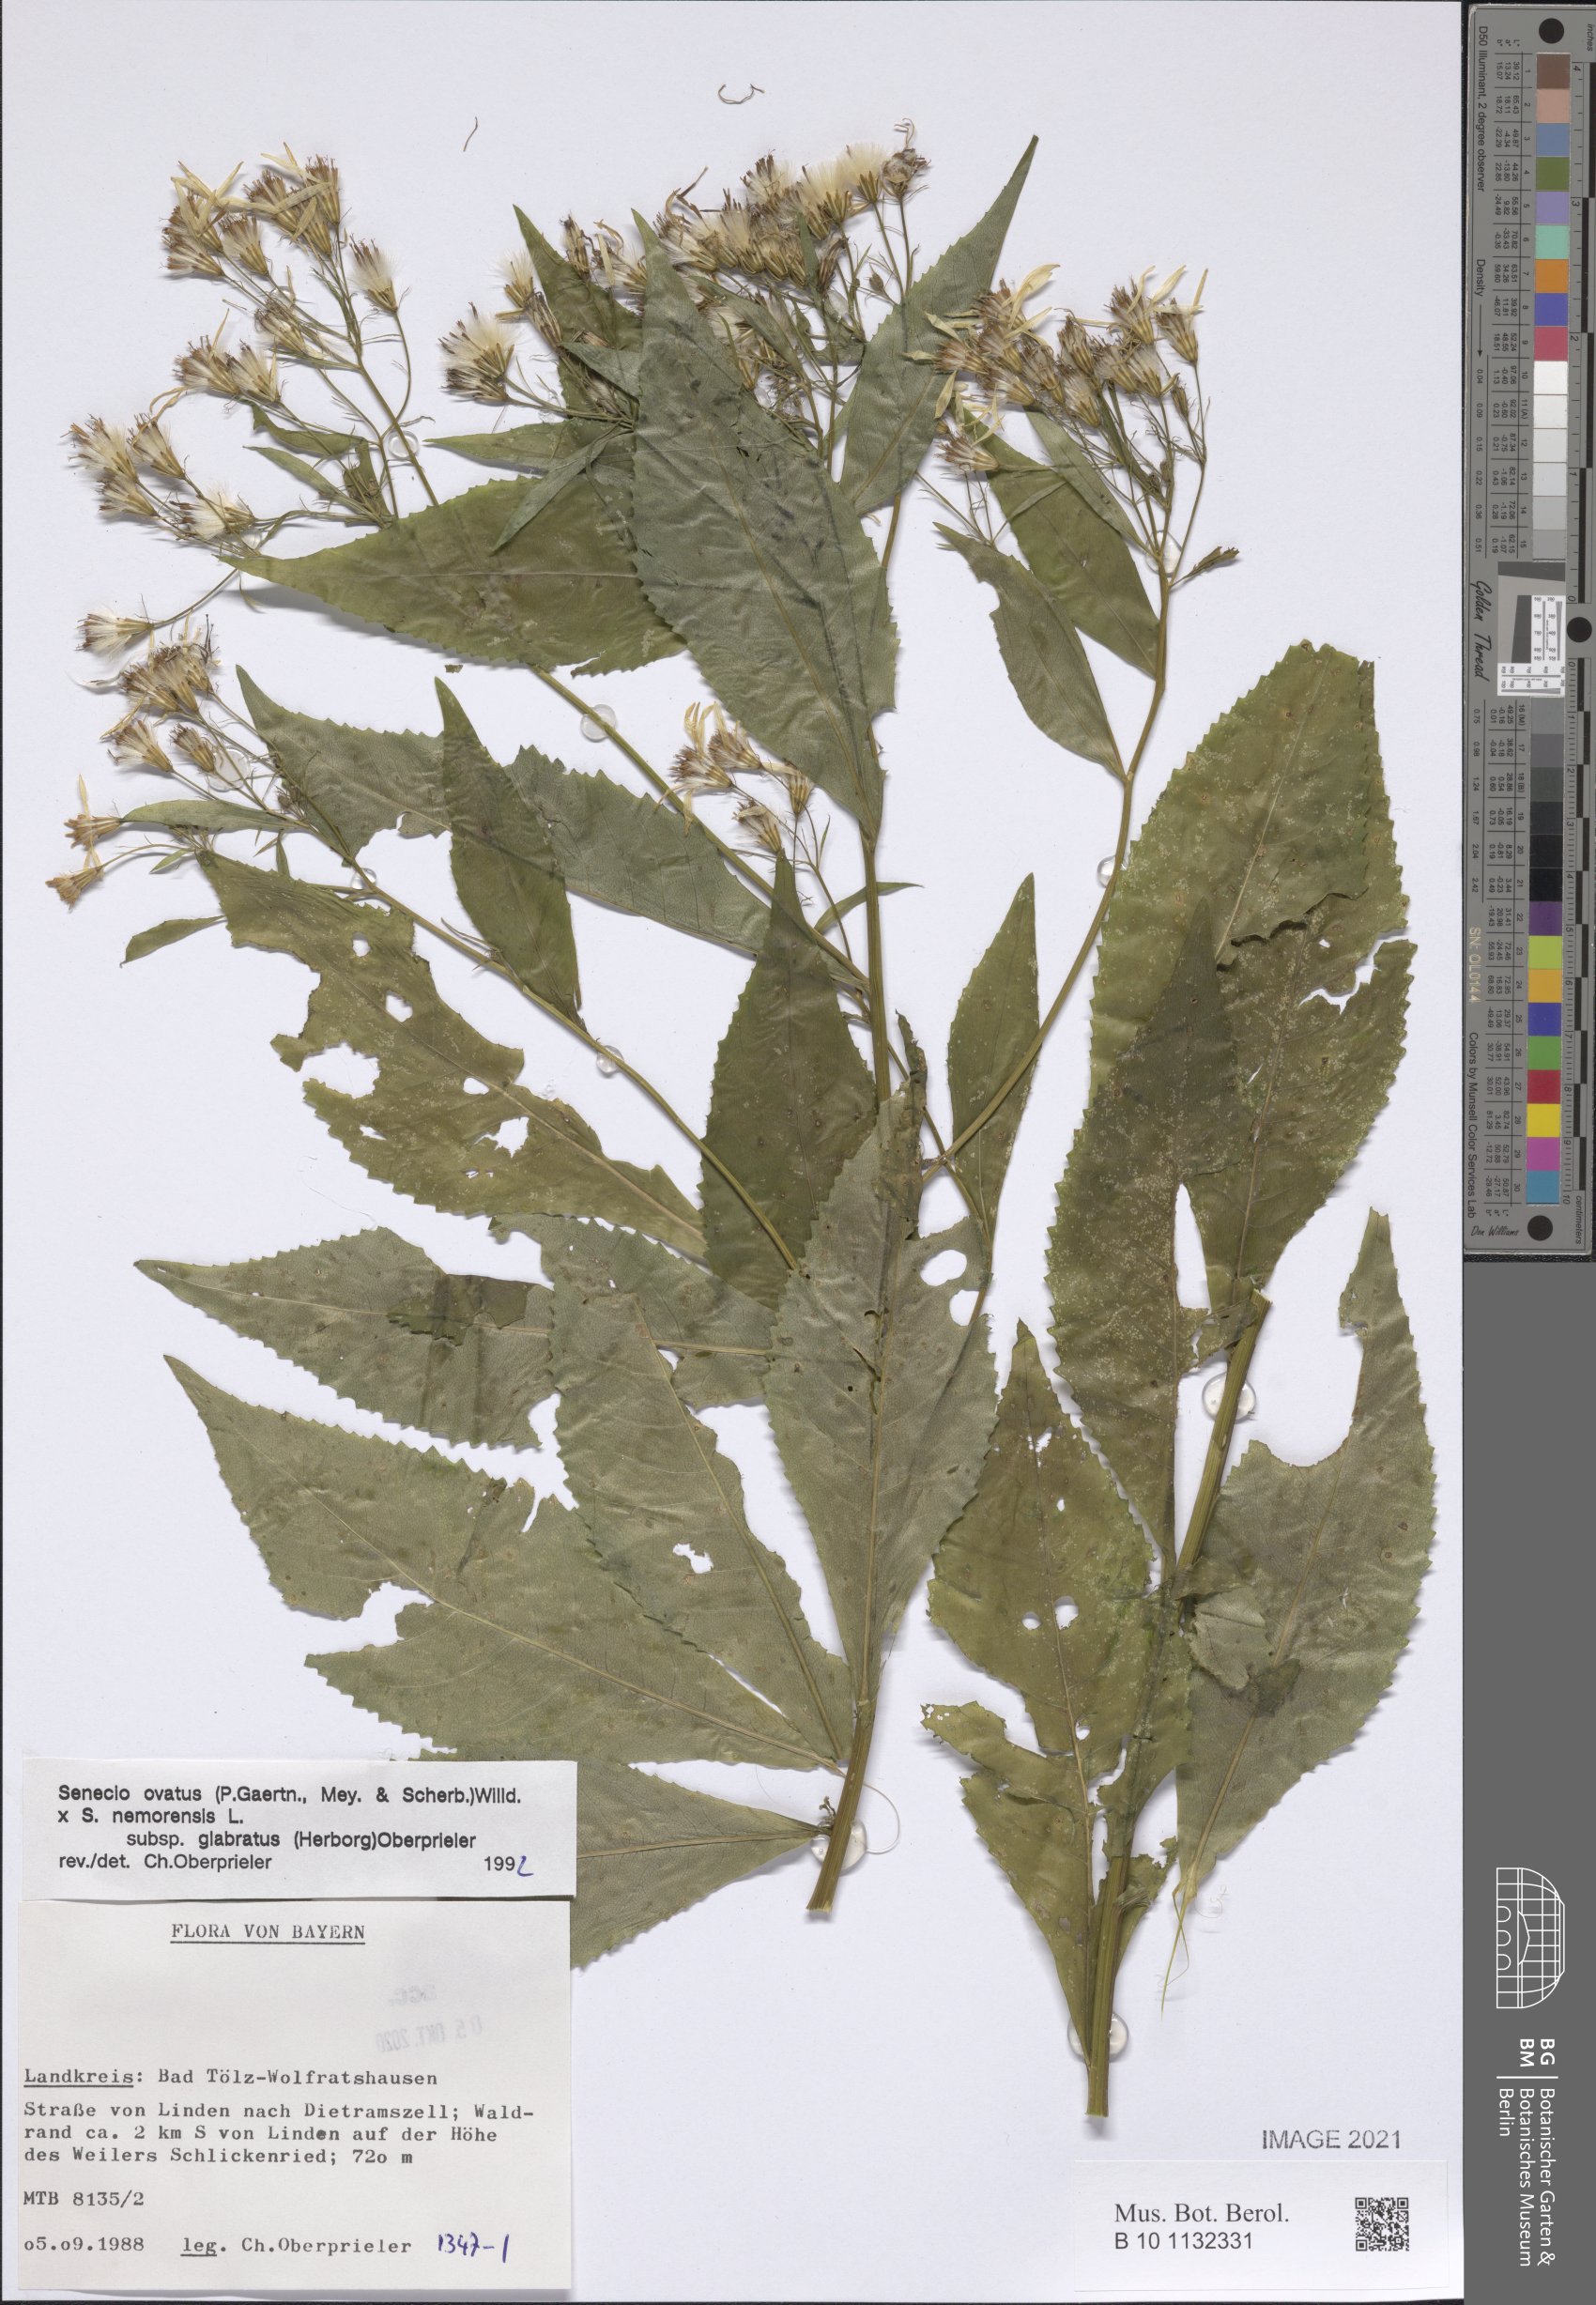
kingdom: Plantae
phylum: Tracheophyta
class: Magnoliopsida
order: Asterales
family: Asteraceae
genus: Senecio
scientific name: Senecio ovatus
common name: Wood ragwort
